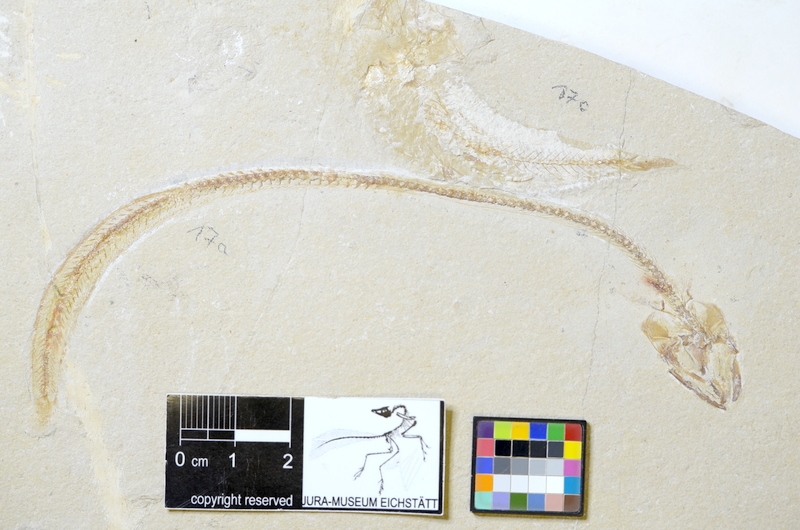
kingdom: Animalia
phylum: Chordata
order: Anguilliformes
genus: Hayenchelys
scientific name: Hayenchelys Urenchelys germanus
